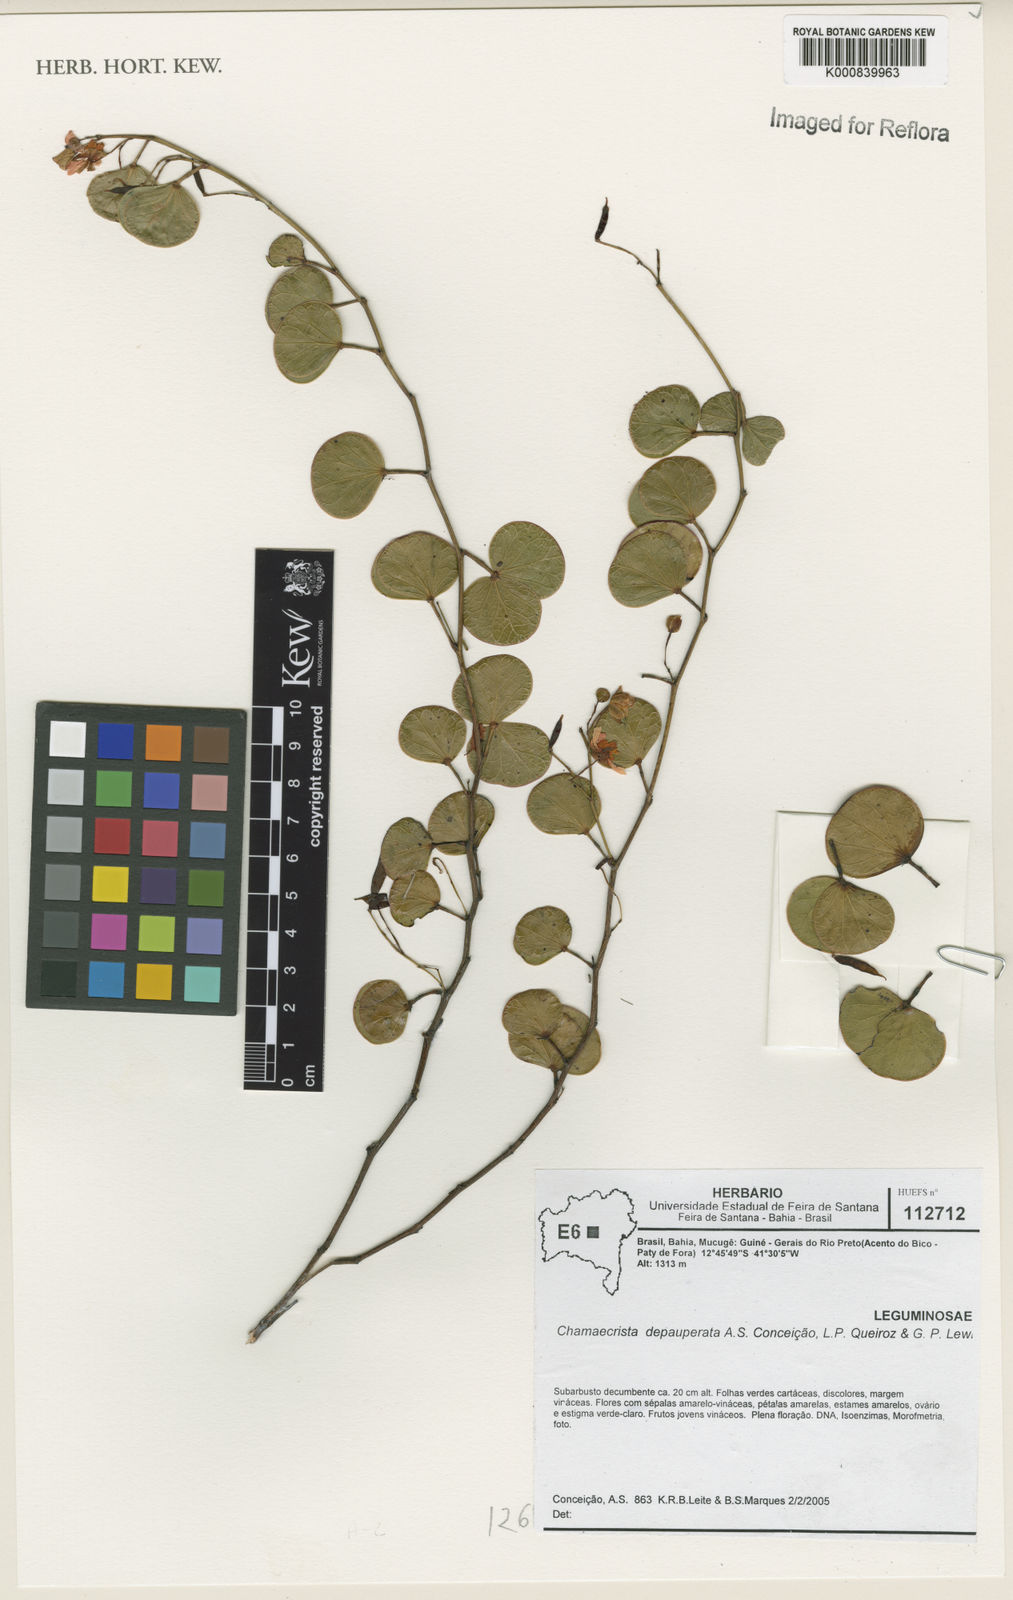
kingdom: Plantae
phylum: Tracheophyta
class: Magnoliopsida
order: Fabales
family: Fabaceae
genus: Chamaecrista
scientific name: Chamaecrista depauperata
